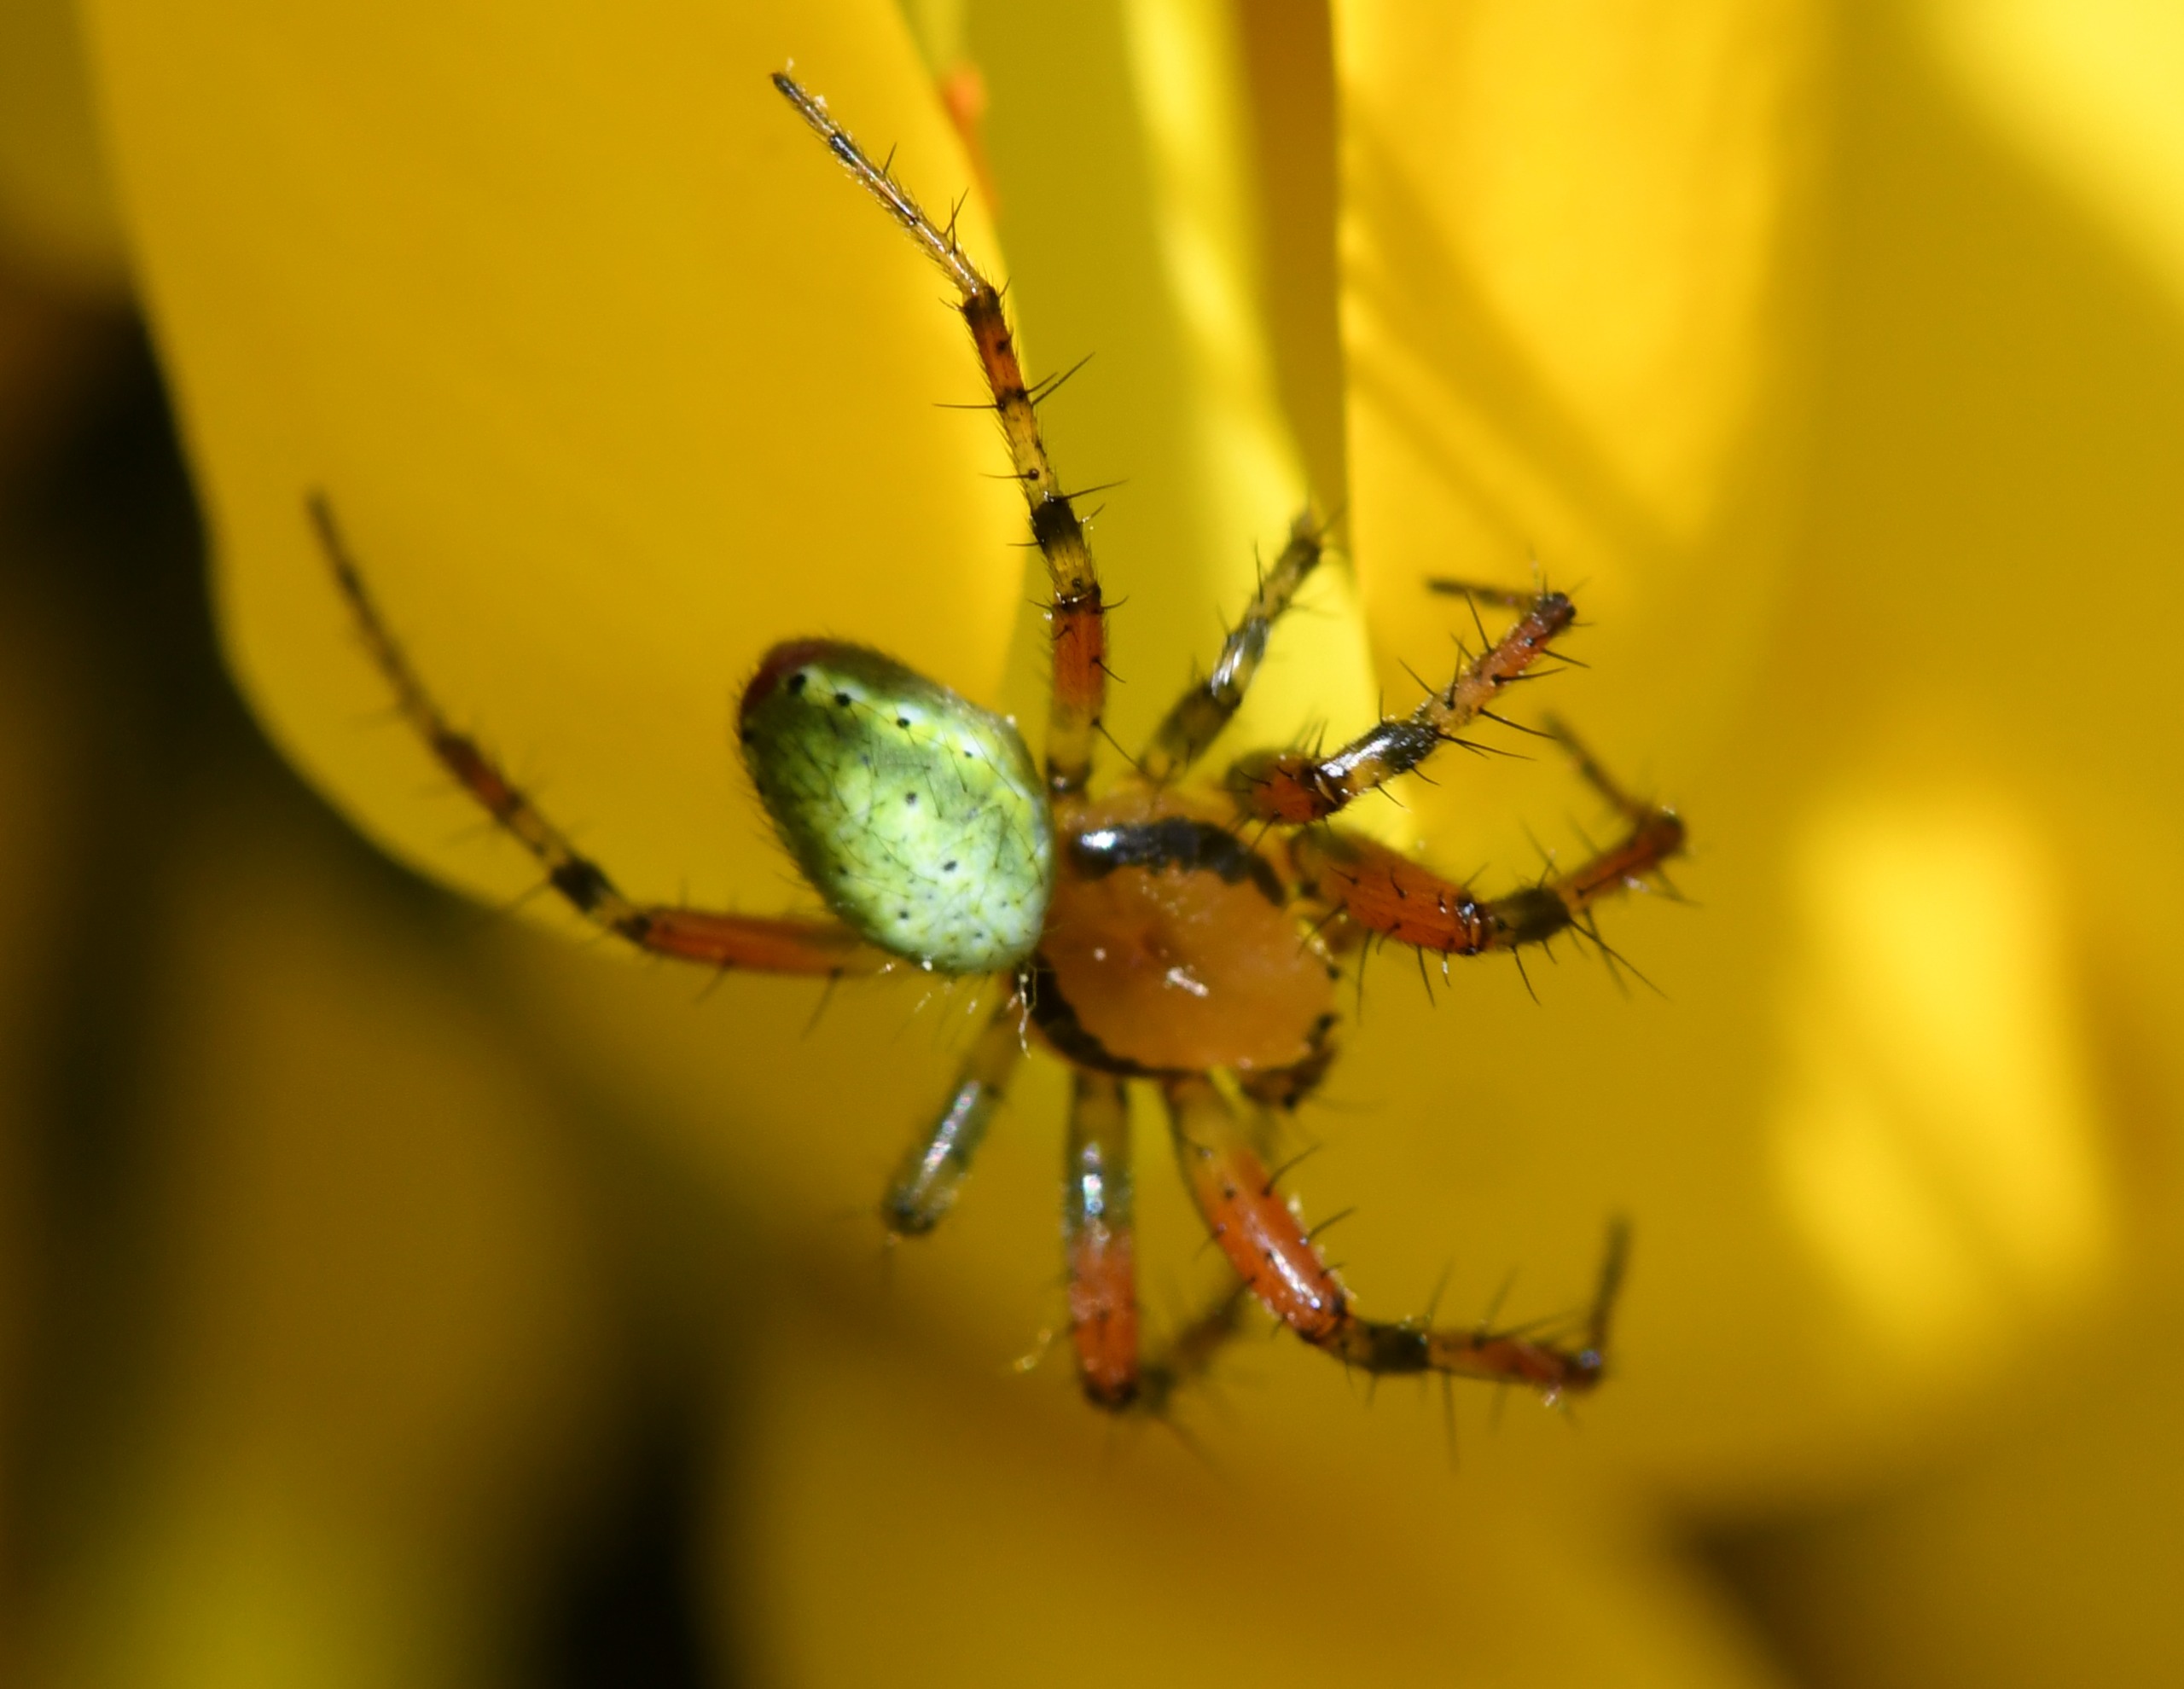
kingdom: Animalia
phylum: Arthropoda
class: Arachnida
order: Araneae
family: Araneidae
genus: Araniella
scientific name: Araniella
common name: Agurkeedderkopslægten
